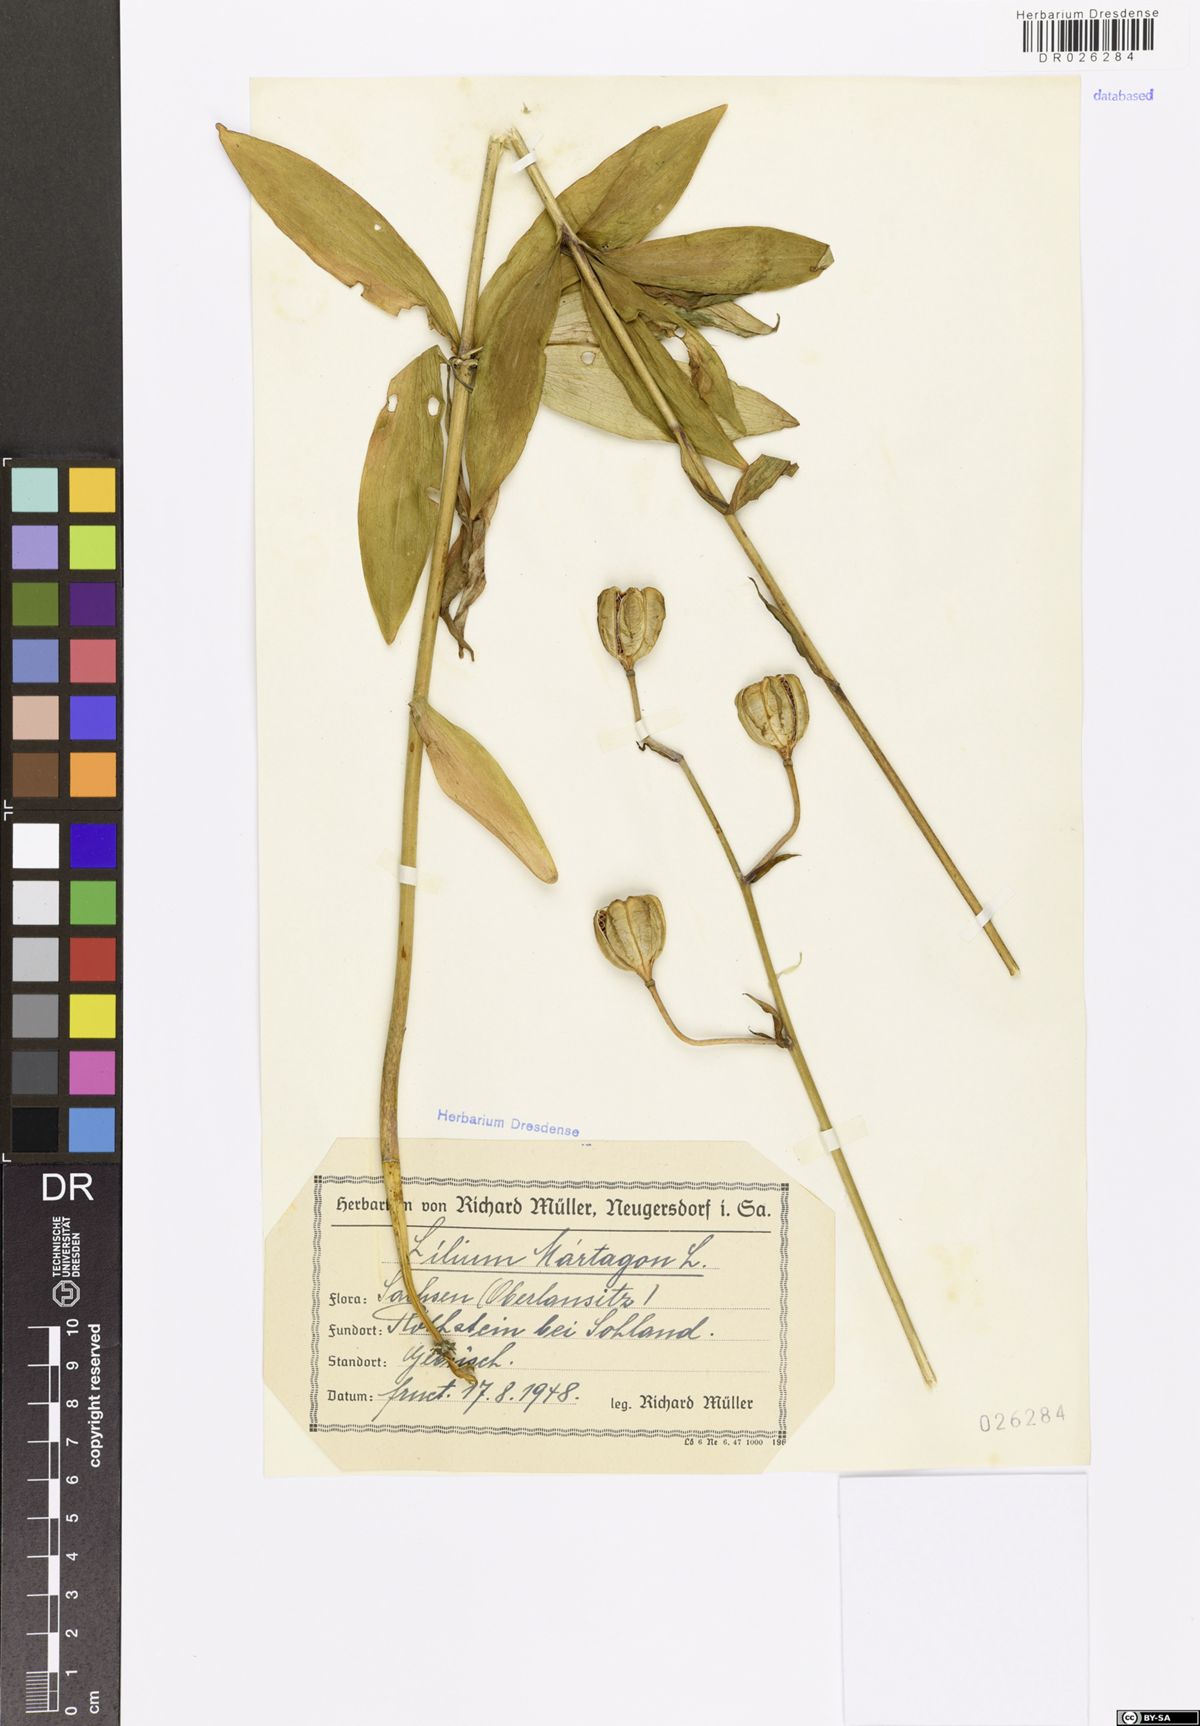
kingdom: Plantae
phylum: Tracheophyta
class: Liliopsida
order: Liliales
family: Liliaceae
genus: Lilium
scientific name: Lilium martagon
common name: Martagon lily
